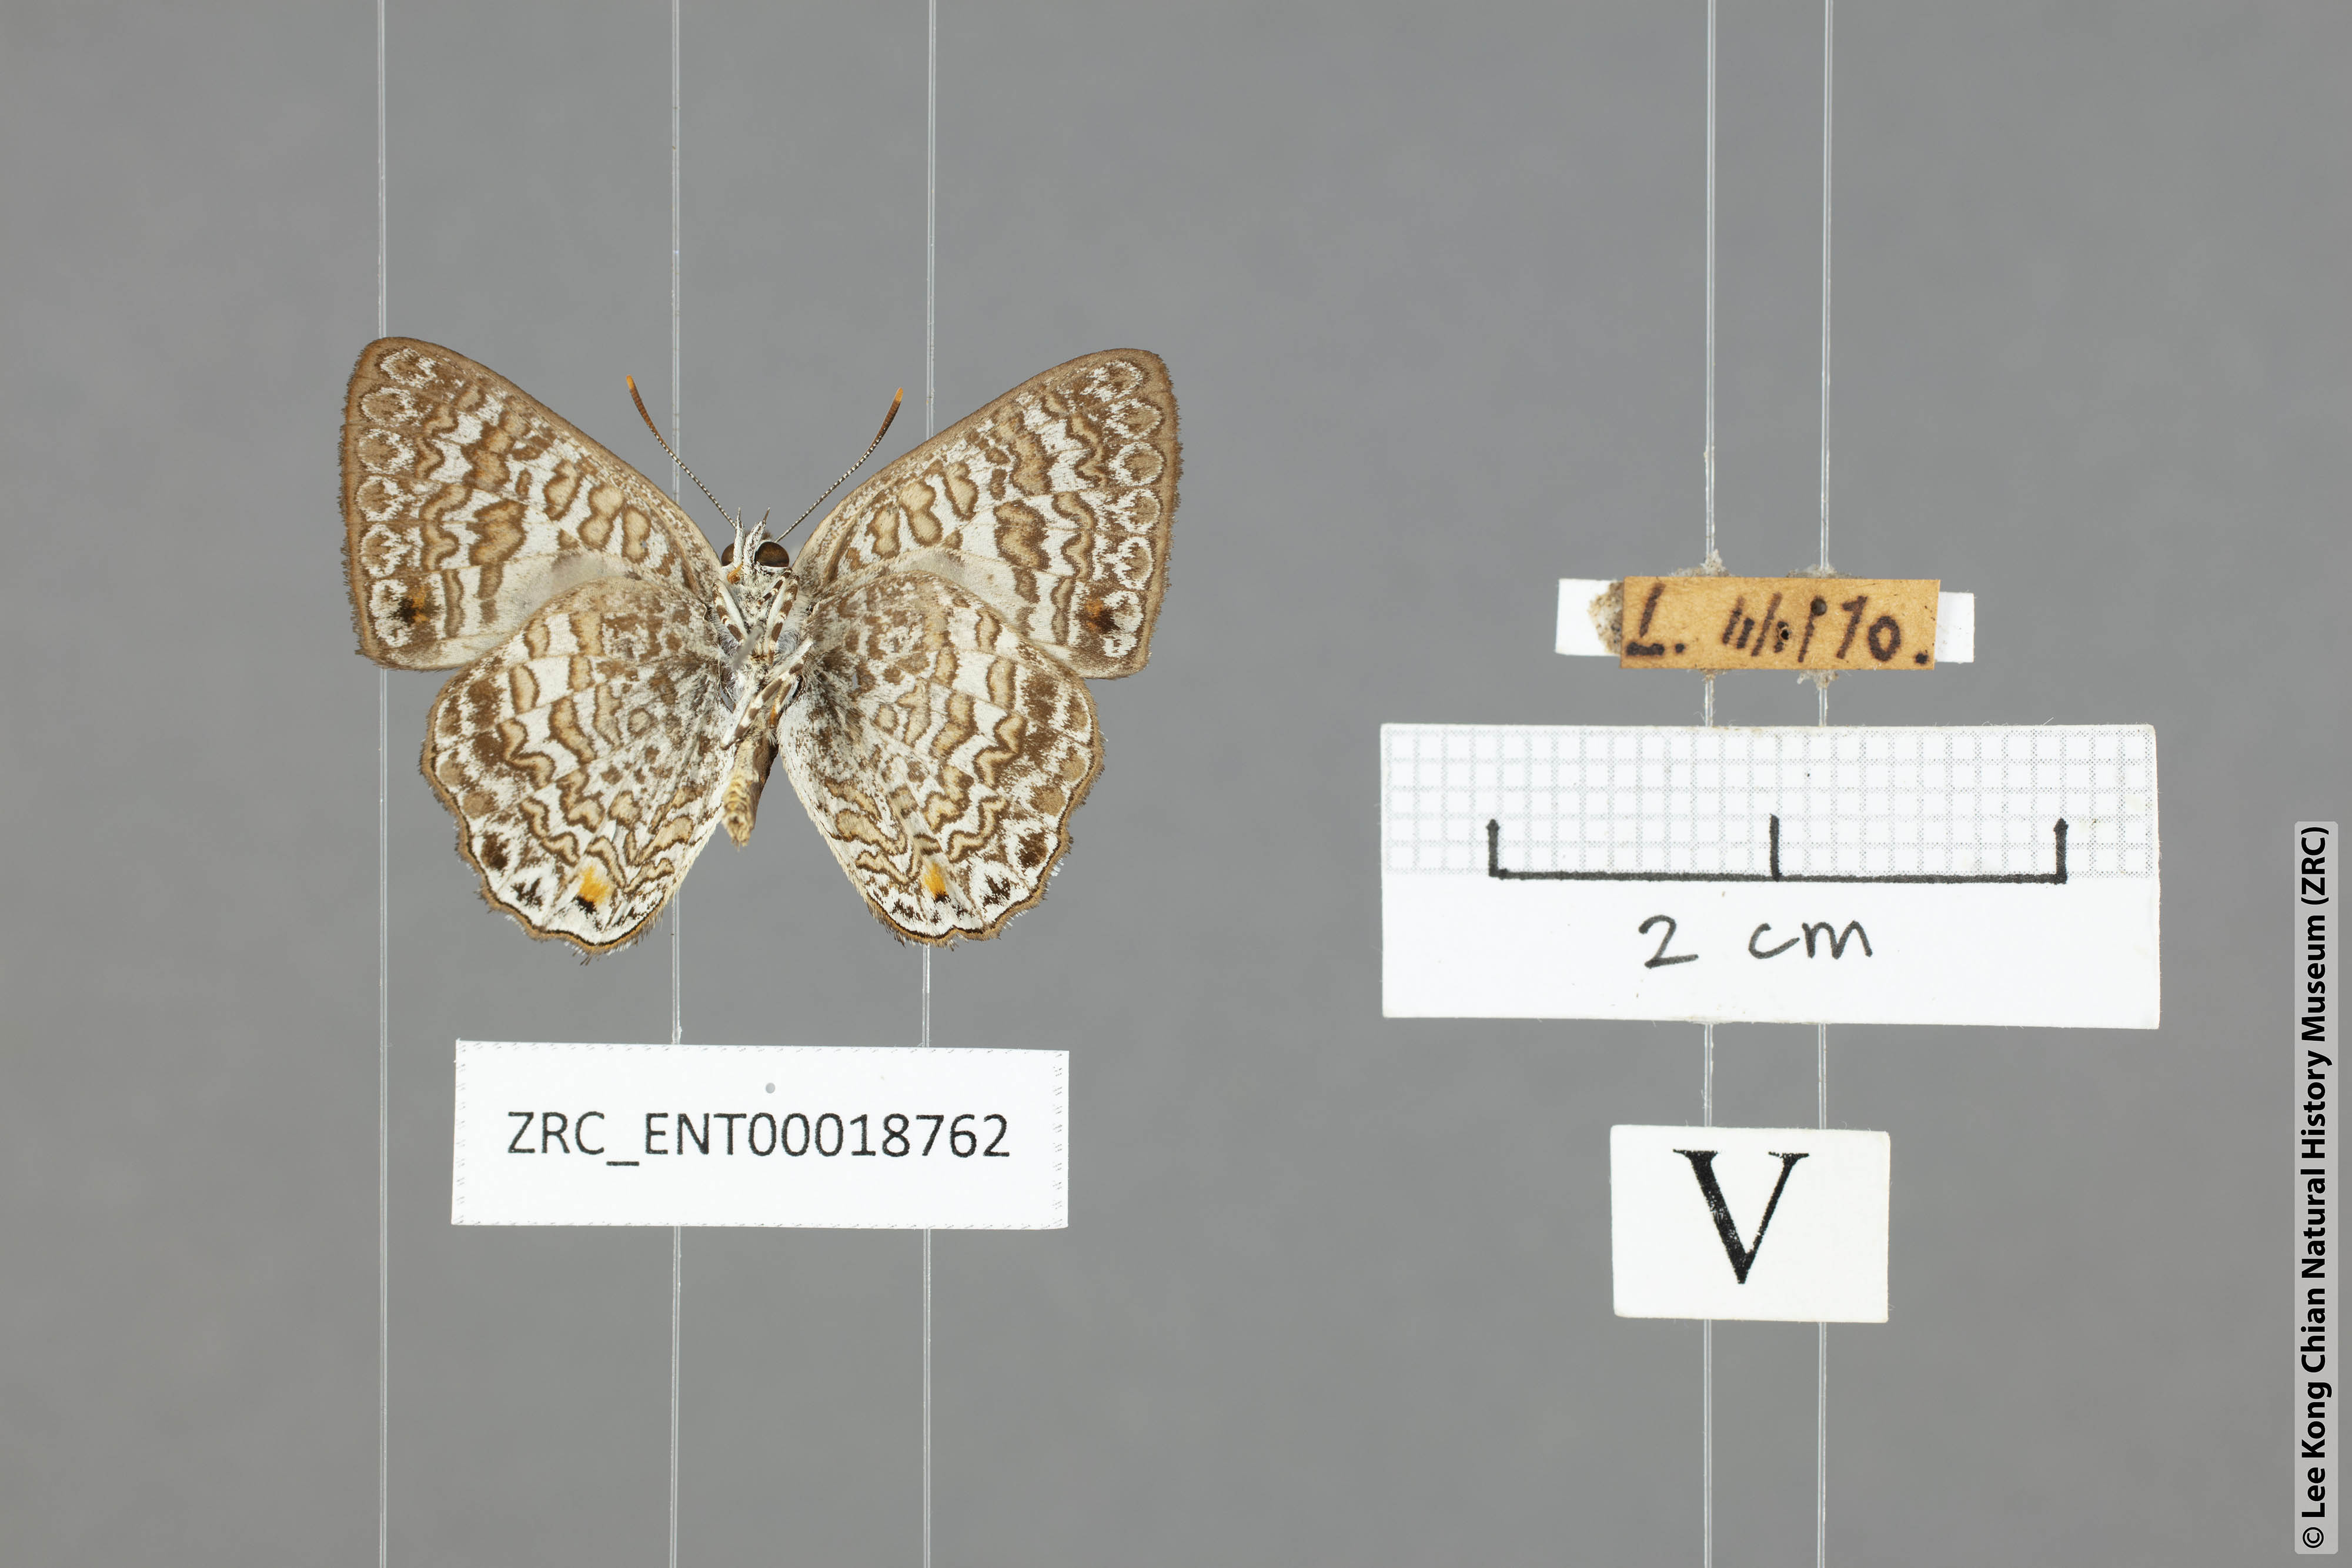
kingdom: Animalia
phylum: Arthropoda
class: Insecta
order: Lepidoptera
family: Lycaenidae
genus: Poritia
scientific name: Poritia erycinoides
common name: Blue gem
